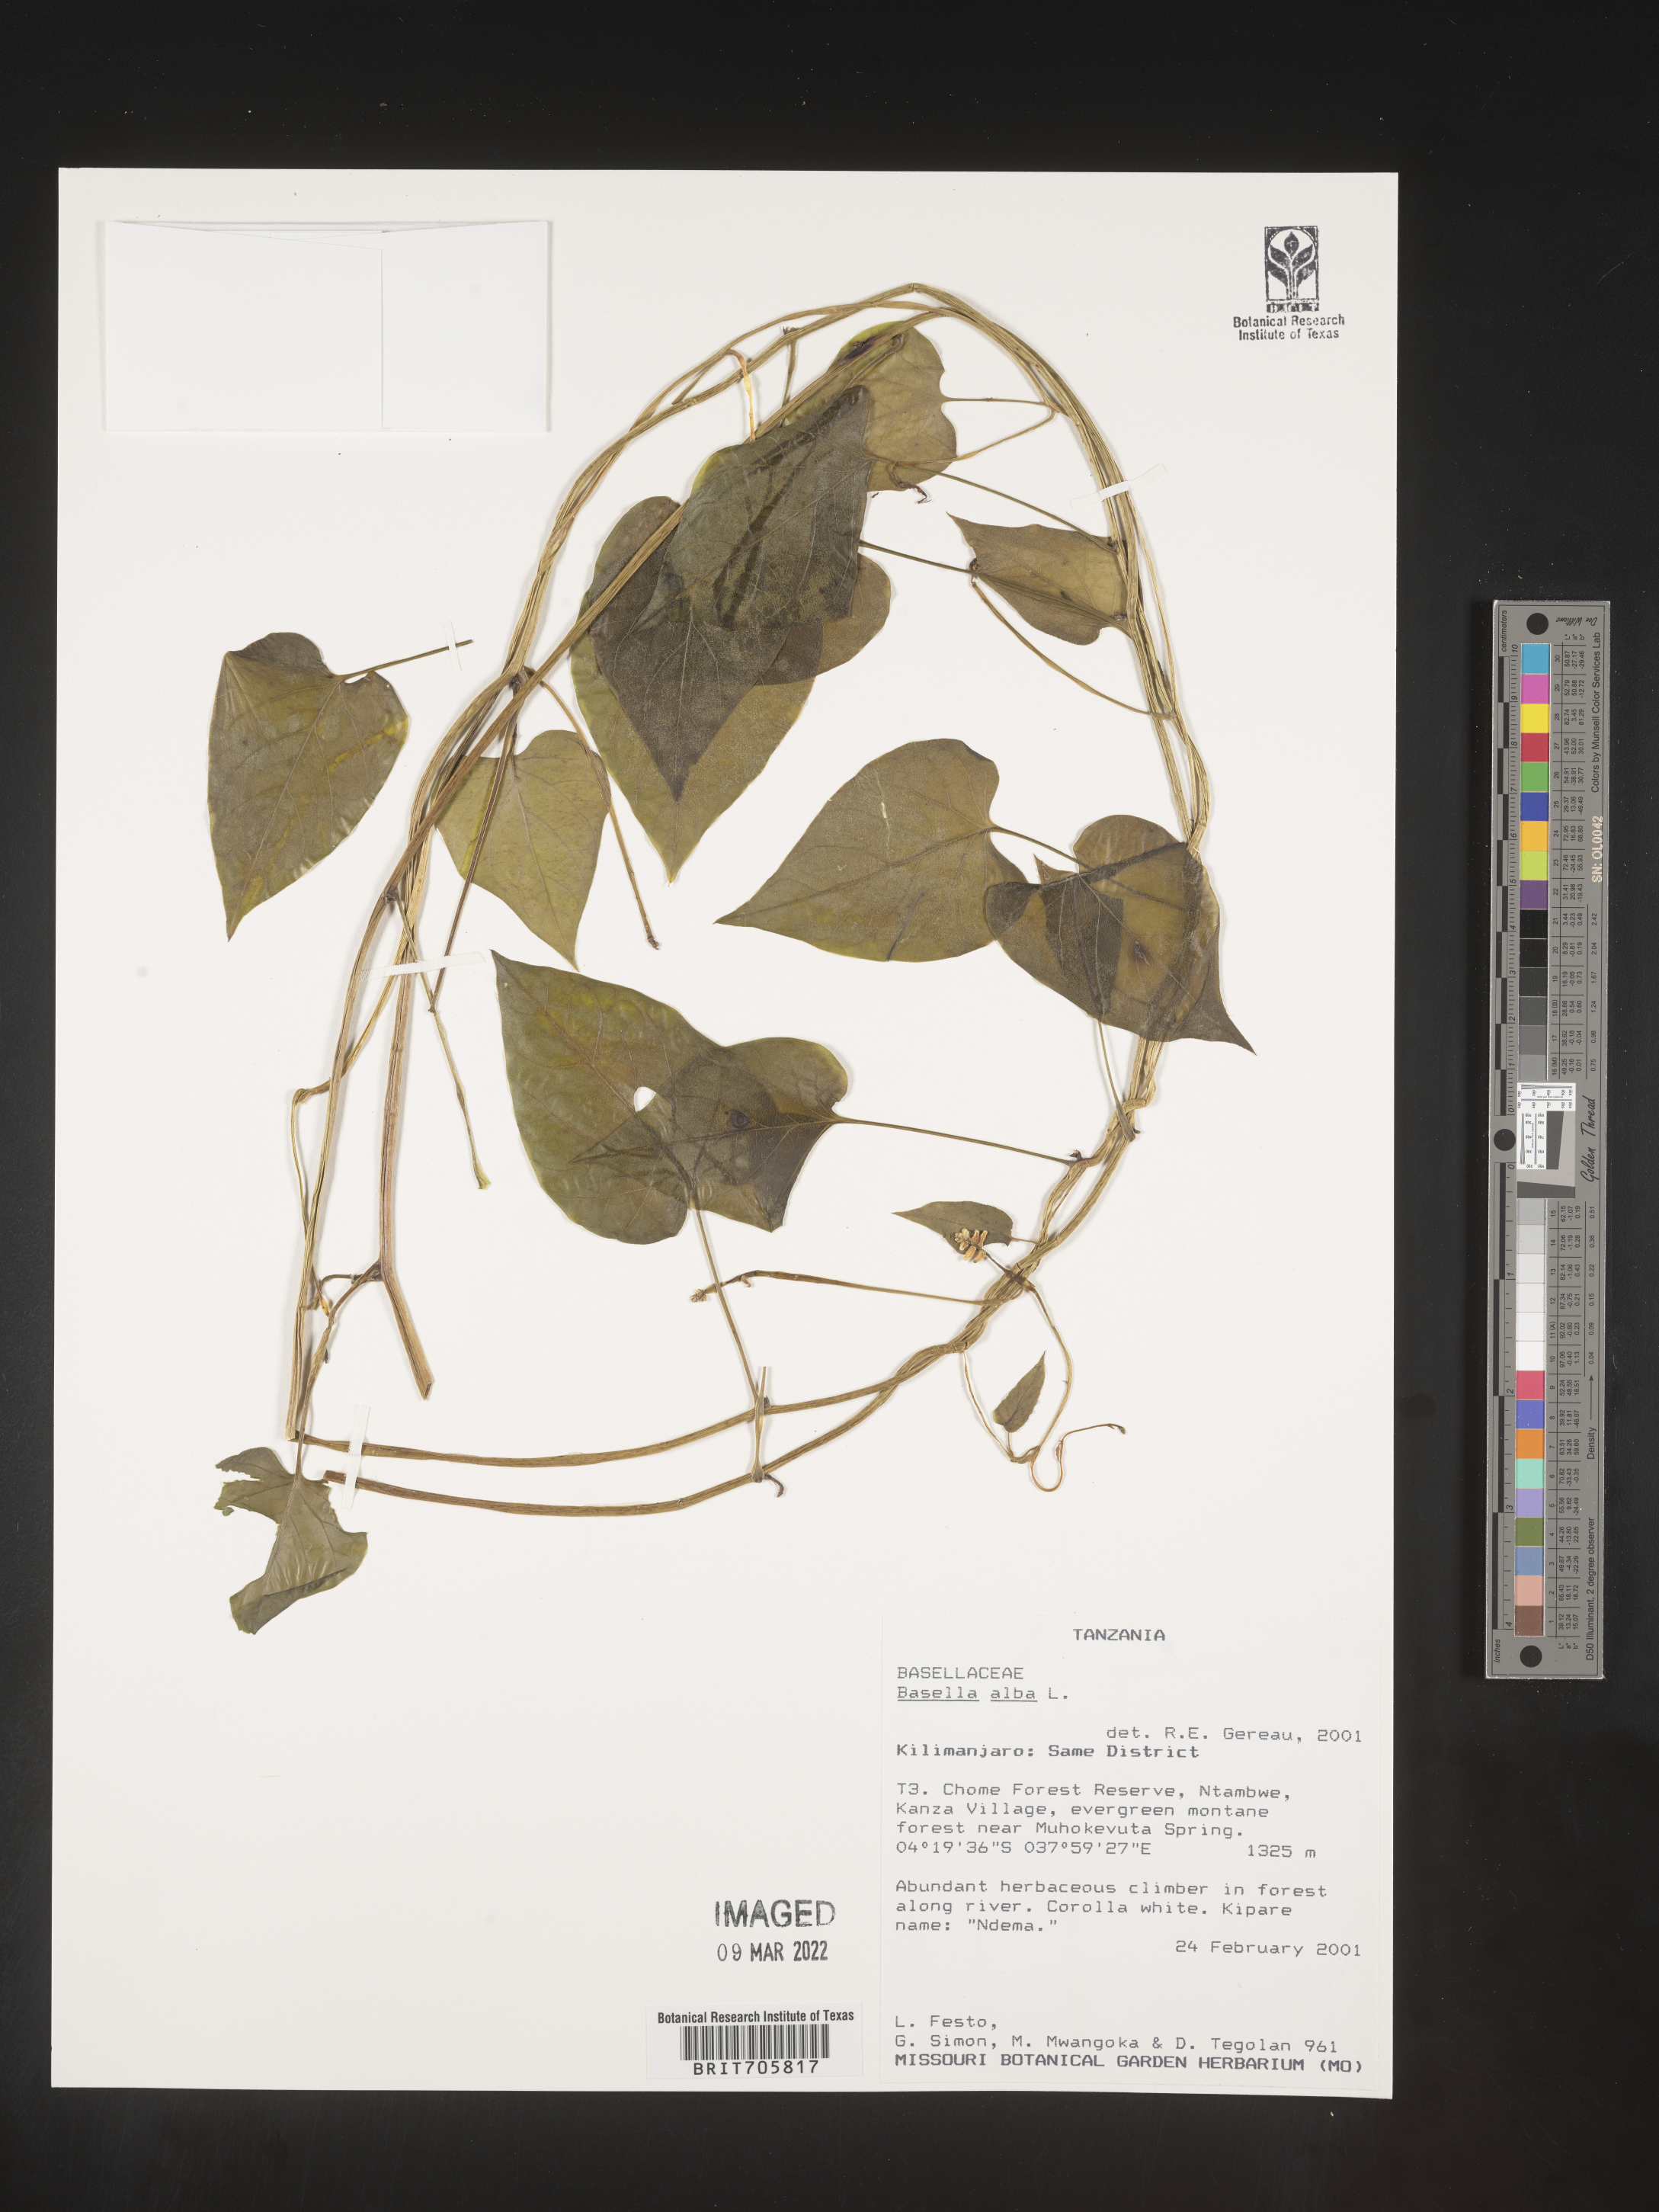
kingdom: Plantae
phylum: Tracheophyta
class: Magnoliopsida
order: Caryophyllales
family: Basellaceae
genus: Basella
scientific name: Basella
